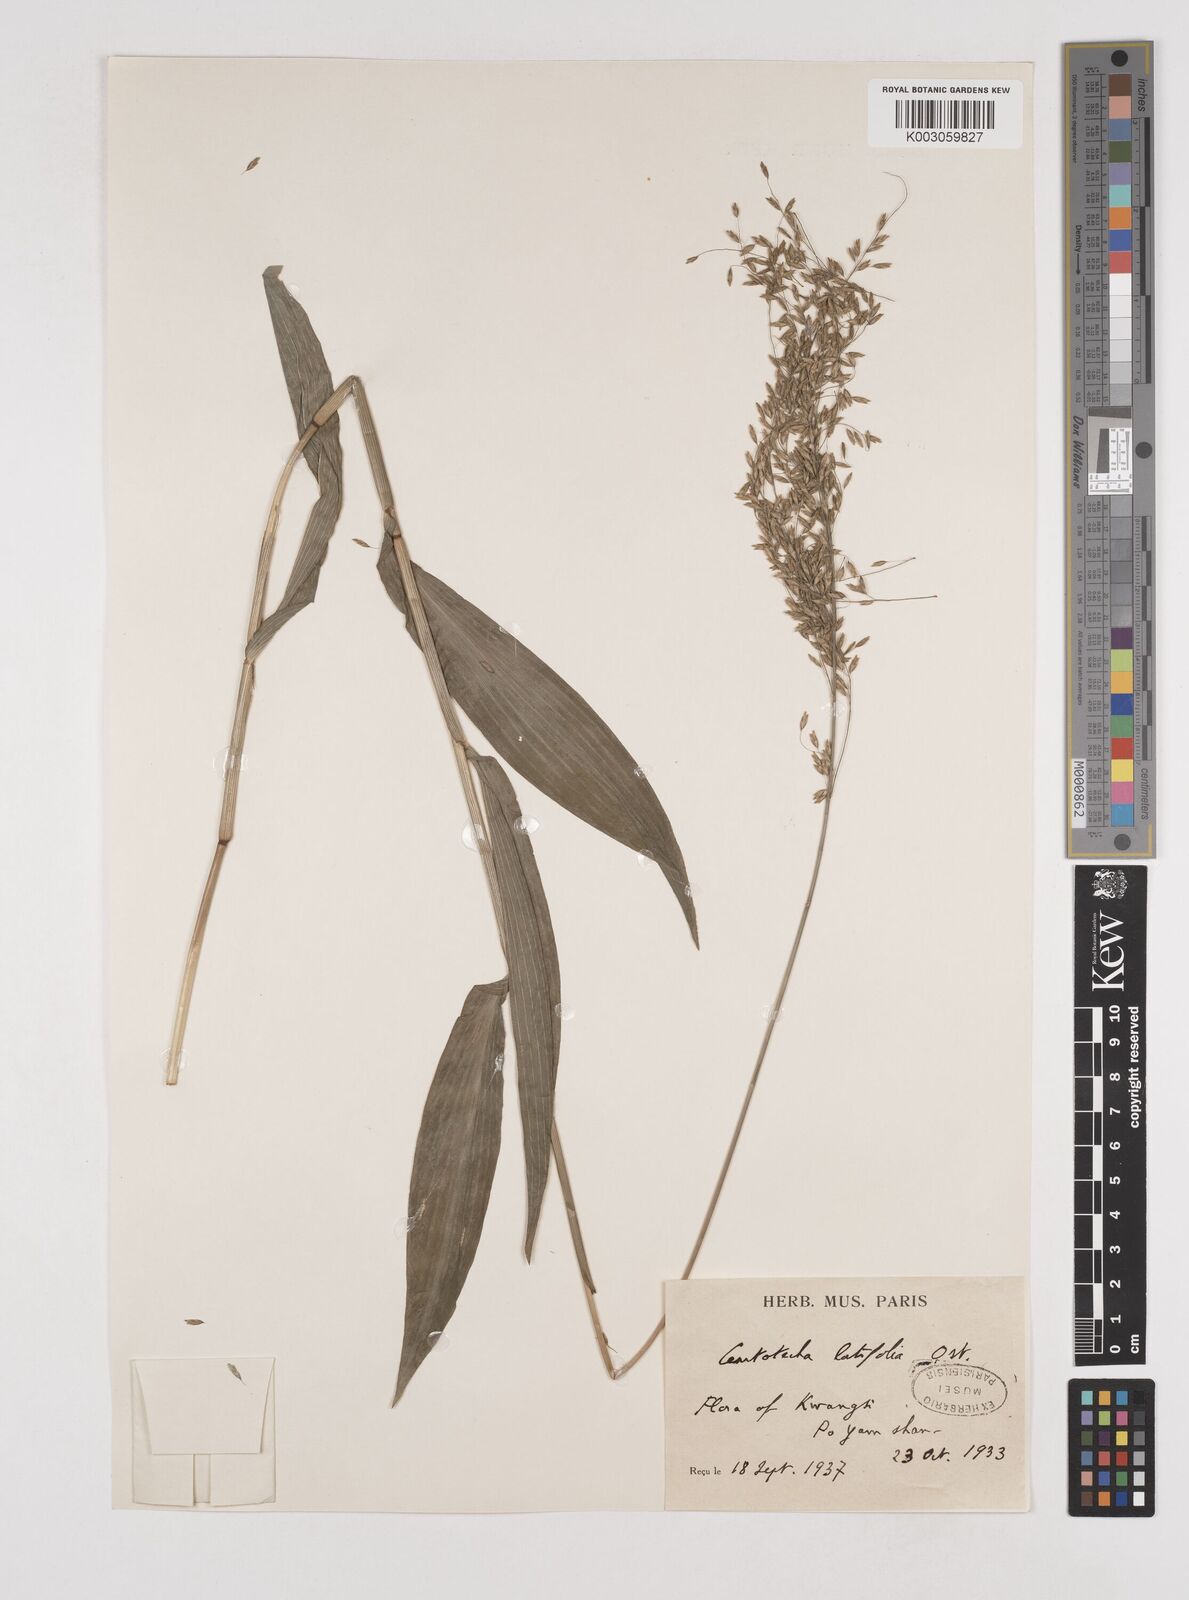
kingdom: Plantae
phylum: Tracheophyta
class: Liliopsida
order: Poales
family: Poaceae
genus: Centotheca
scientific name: Centotheca lappacea
